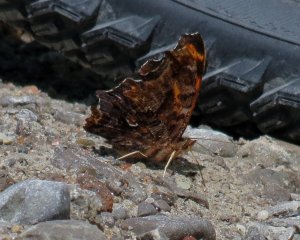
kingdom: Animalia
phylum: Arthropoda
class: Insecta
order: Lepidoptera
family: Nymphalidae
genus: Polygonia
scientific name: Polygonia comma
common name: Eastern Comma
